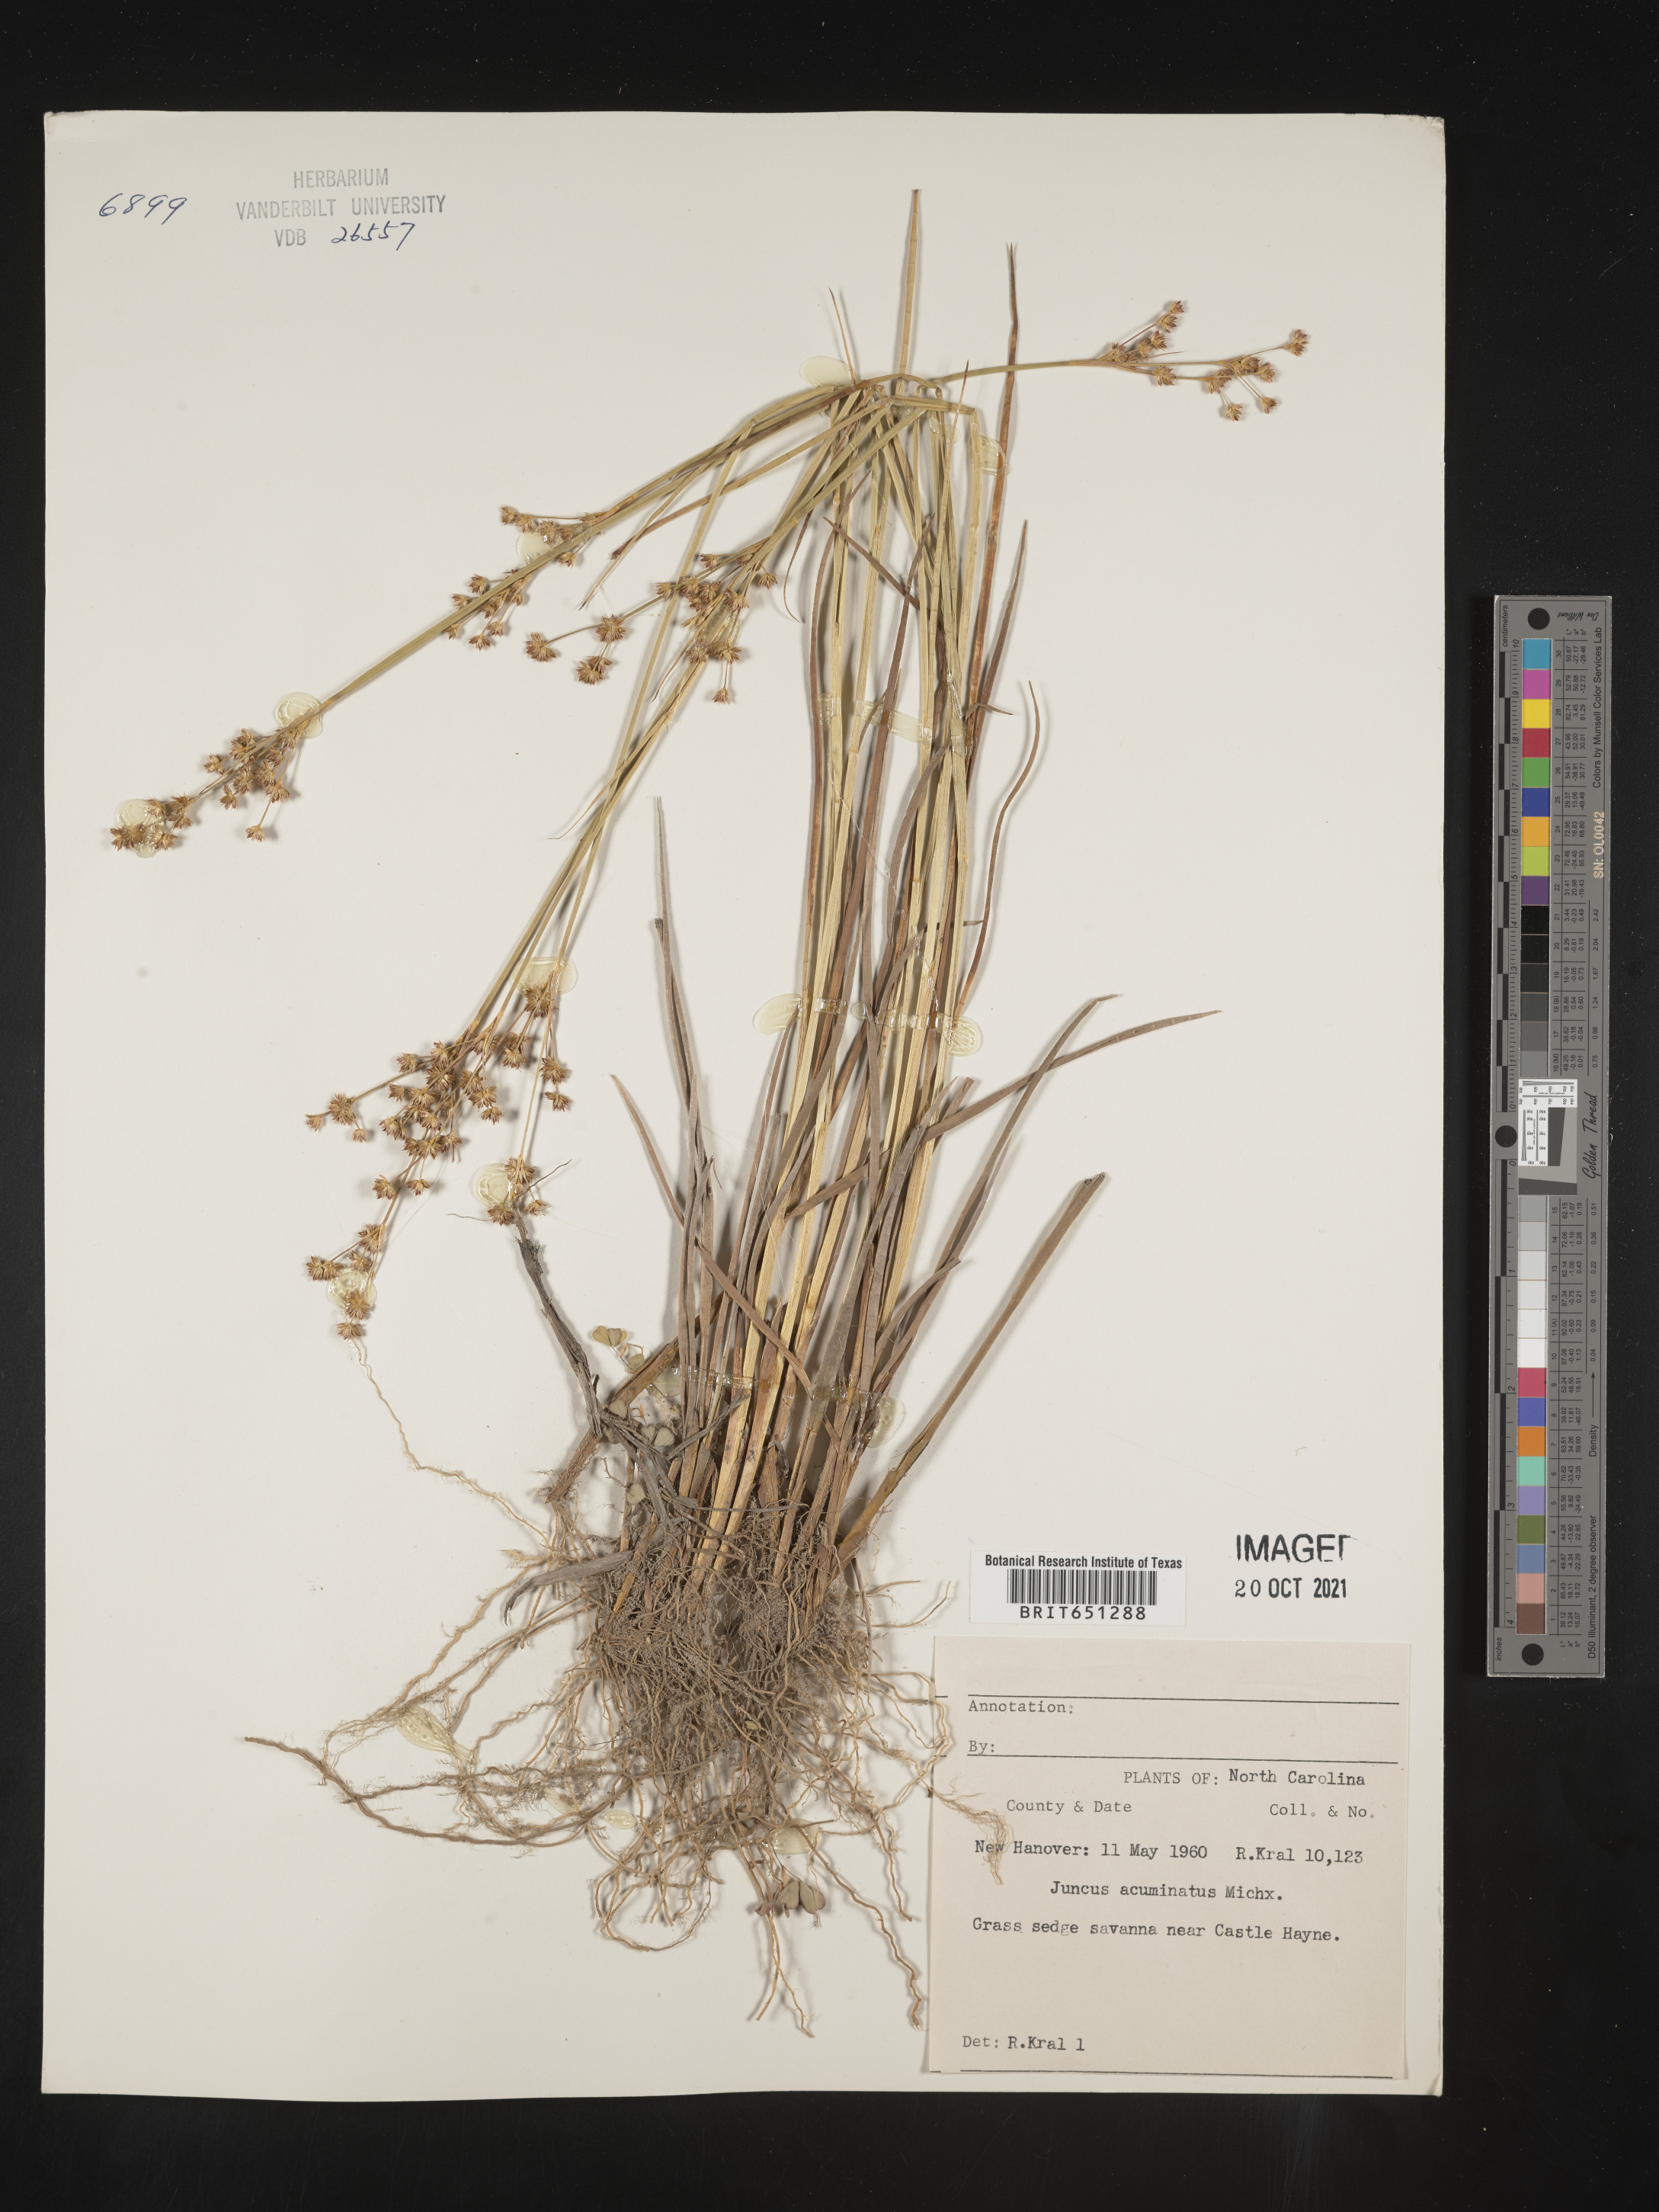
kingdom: Plantae
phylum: Tracheophyta
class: Liliopsida
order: Poales
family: Juncaceae
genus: Juncus
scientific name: Juncus acuminatus
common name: Knotty-leaved rush
